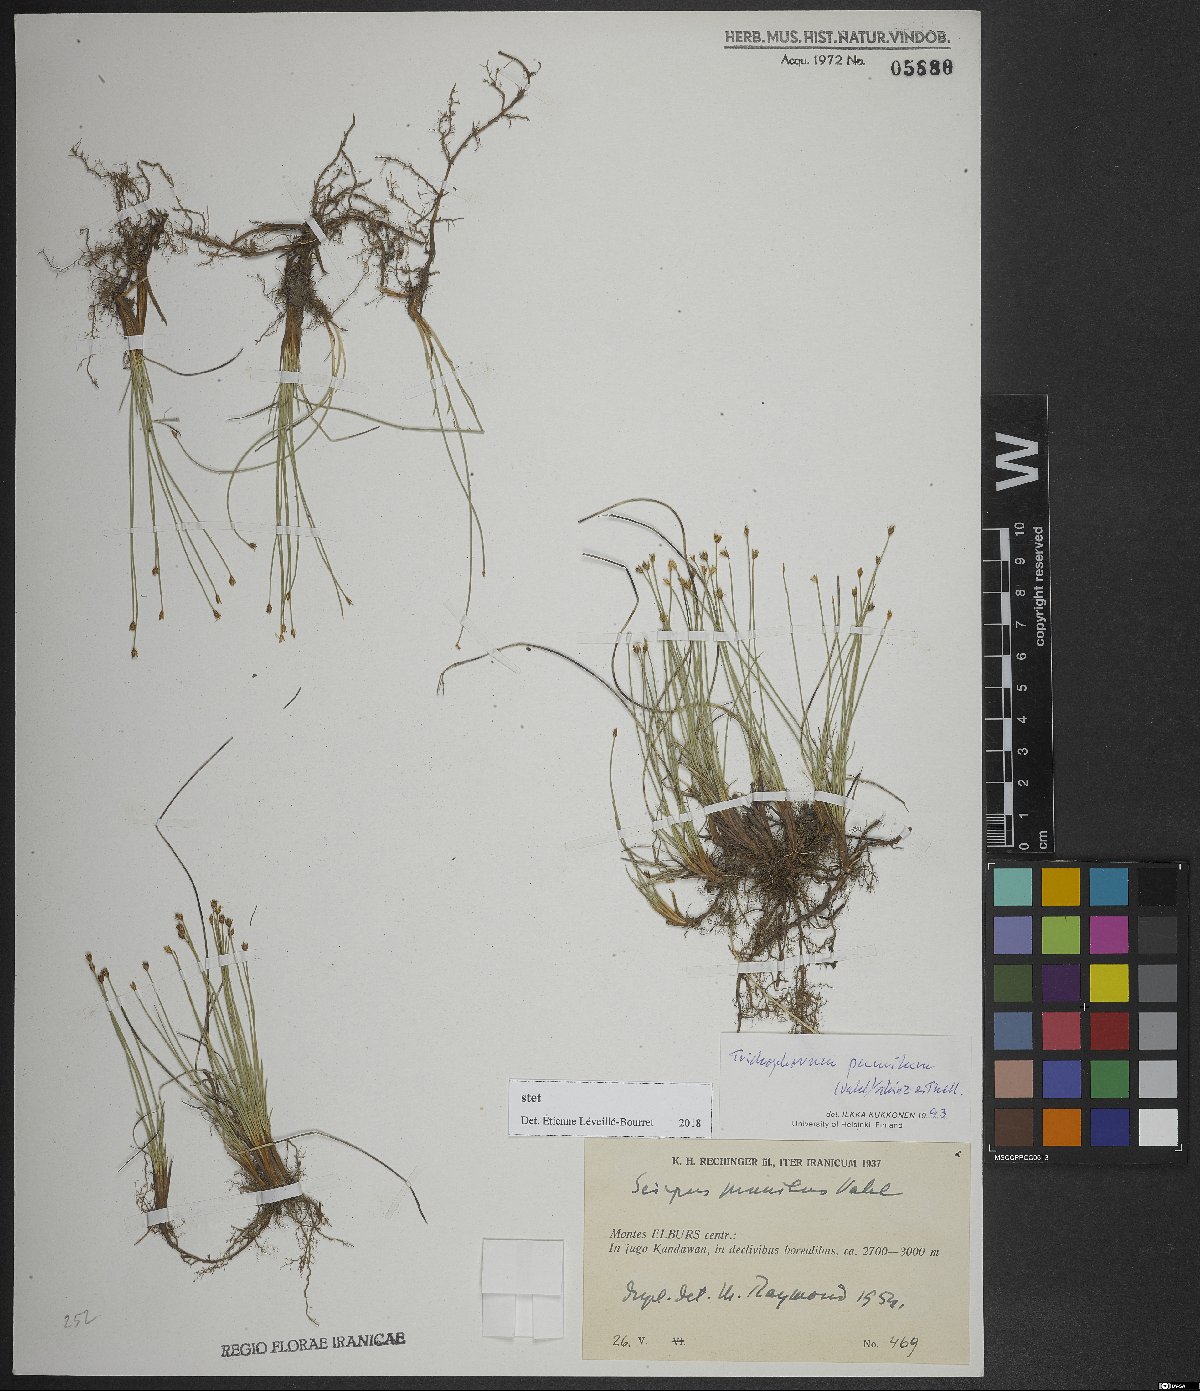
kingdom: Plantae
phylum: Tracheophyta
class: Liliopsida
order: Poales
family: Cyperaceae
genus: Trichophorum
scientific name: Trichophorum pumilum
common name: Rolland's bulrush
